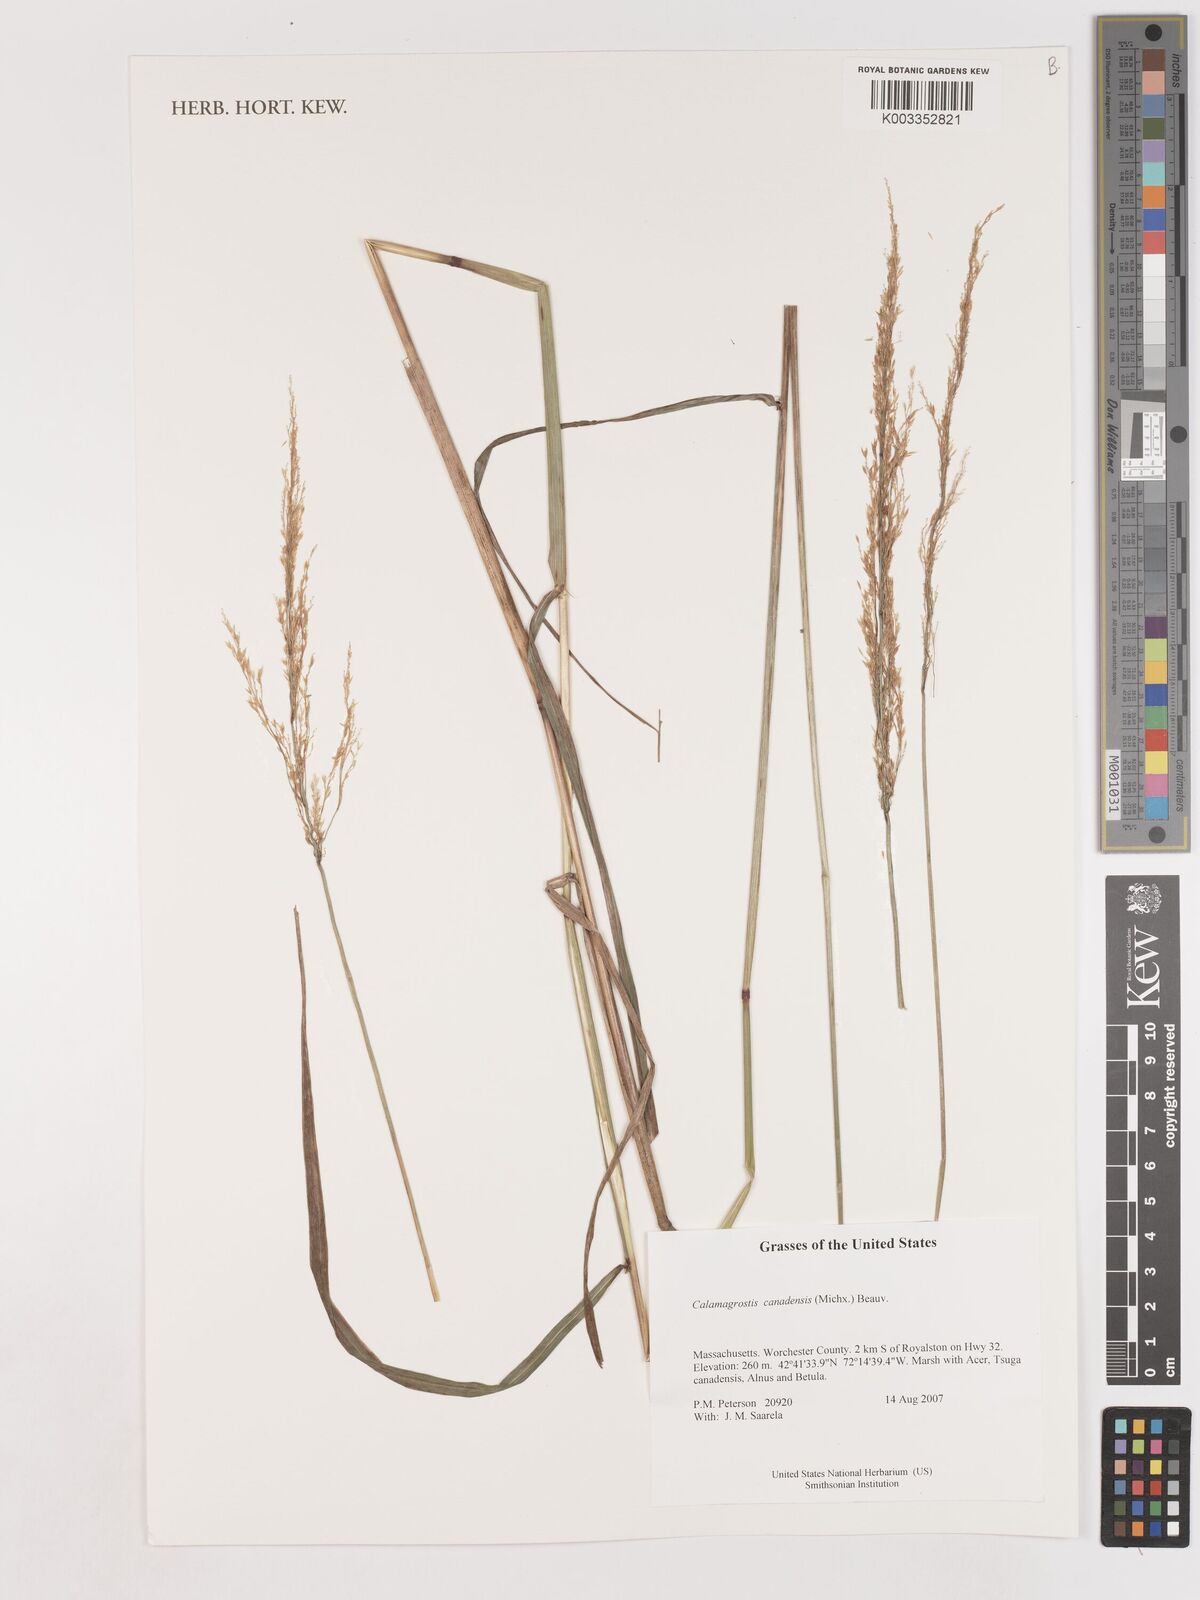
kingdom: Plantae
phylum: Tracheophyta
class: Liliopsida
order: Poales
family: Poaceae
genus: Calamagrostis
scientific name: Calamagrostis canadensis
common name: Canada bluejoint
